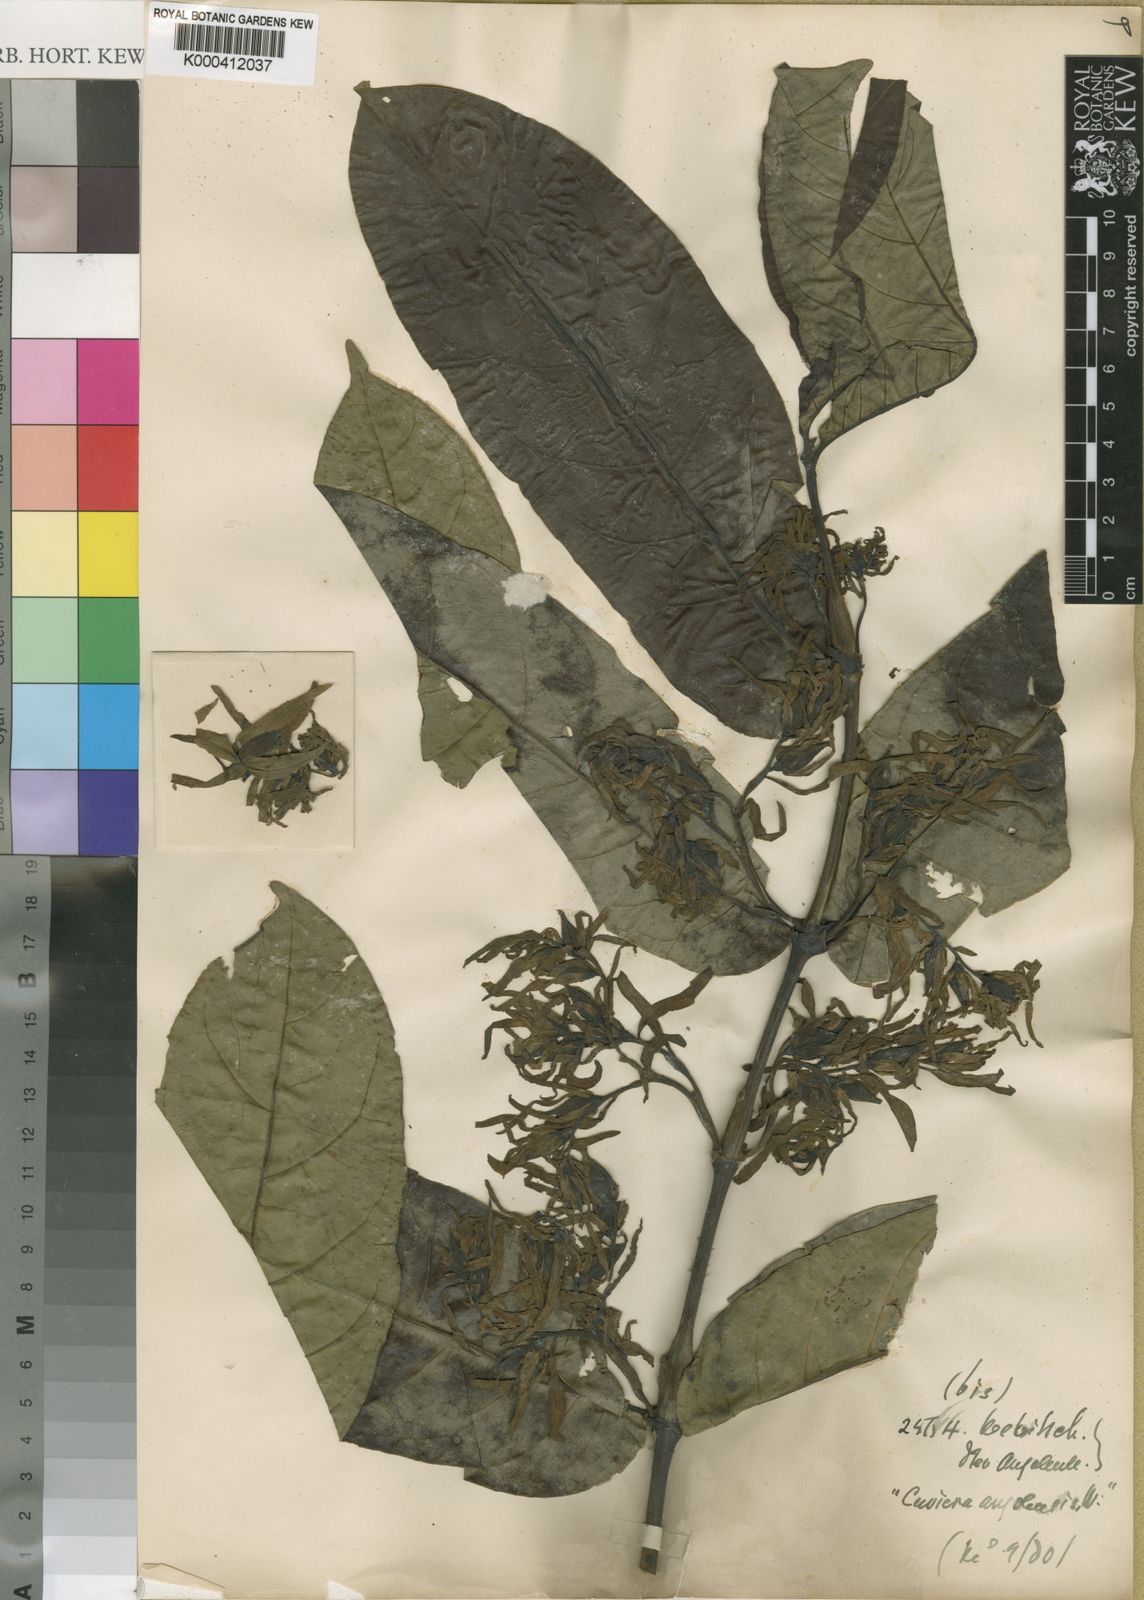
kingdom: Plantae
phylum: Tracheophyta
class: Magnoliopsida
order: Gentianales
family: Rubiaceae
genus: Cuviera
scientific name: Cuviera angolensis
